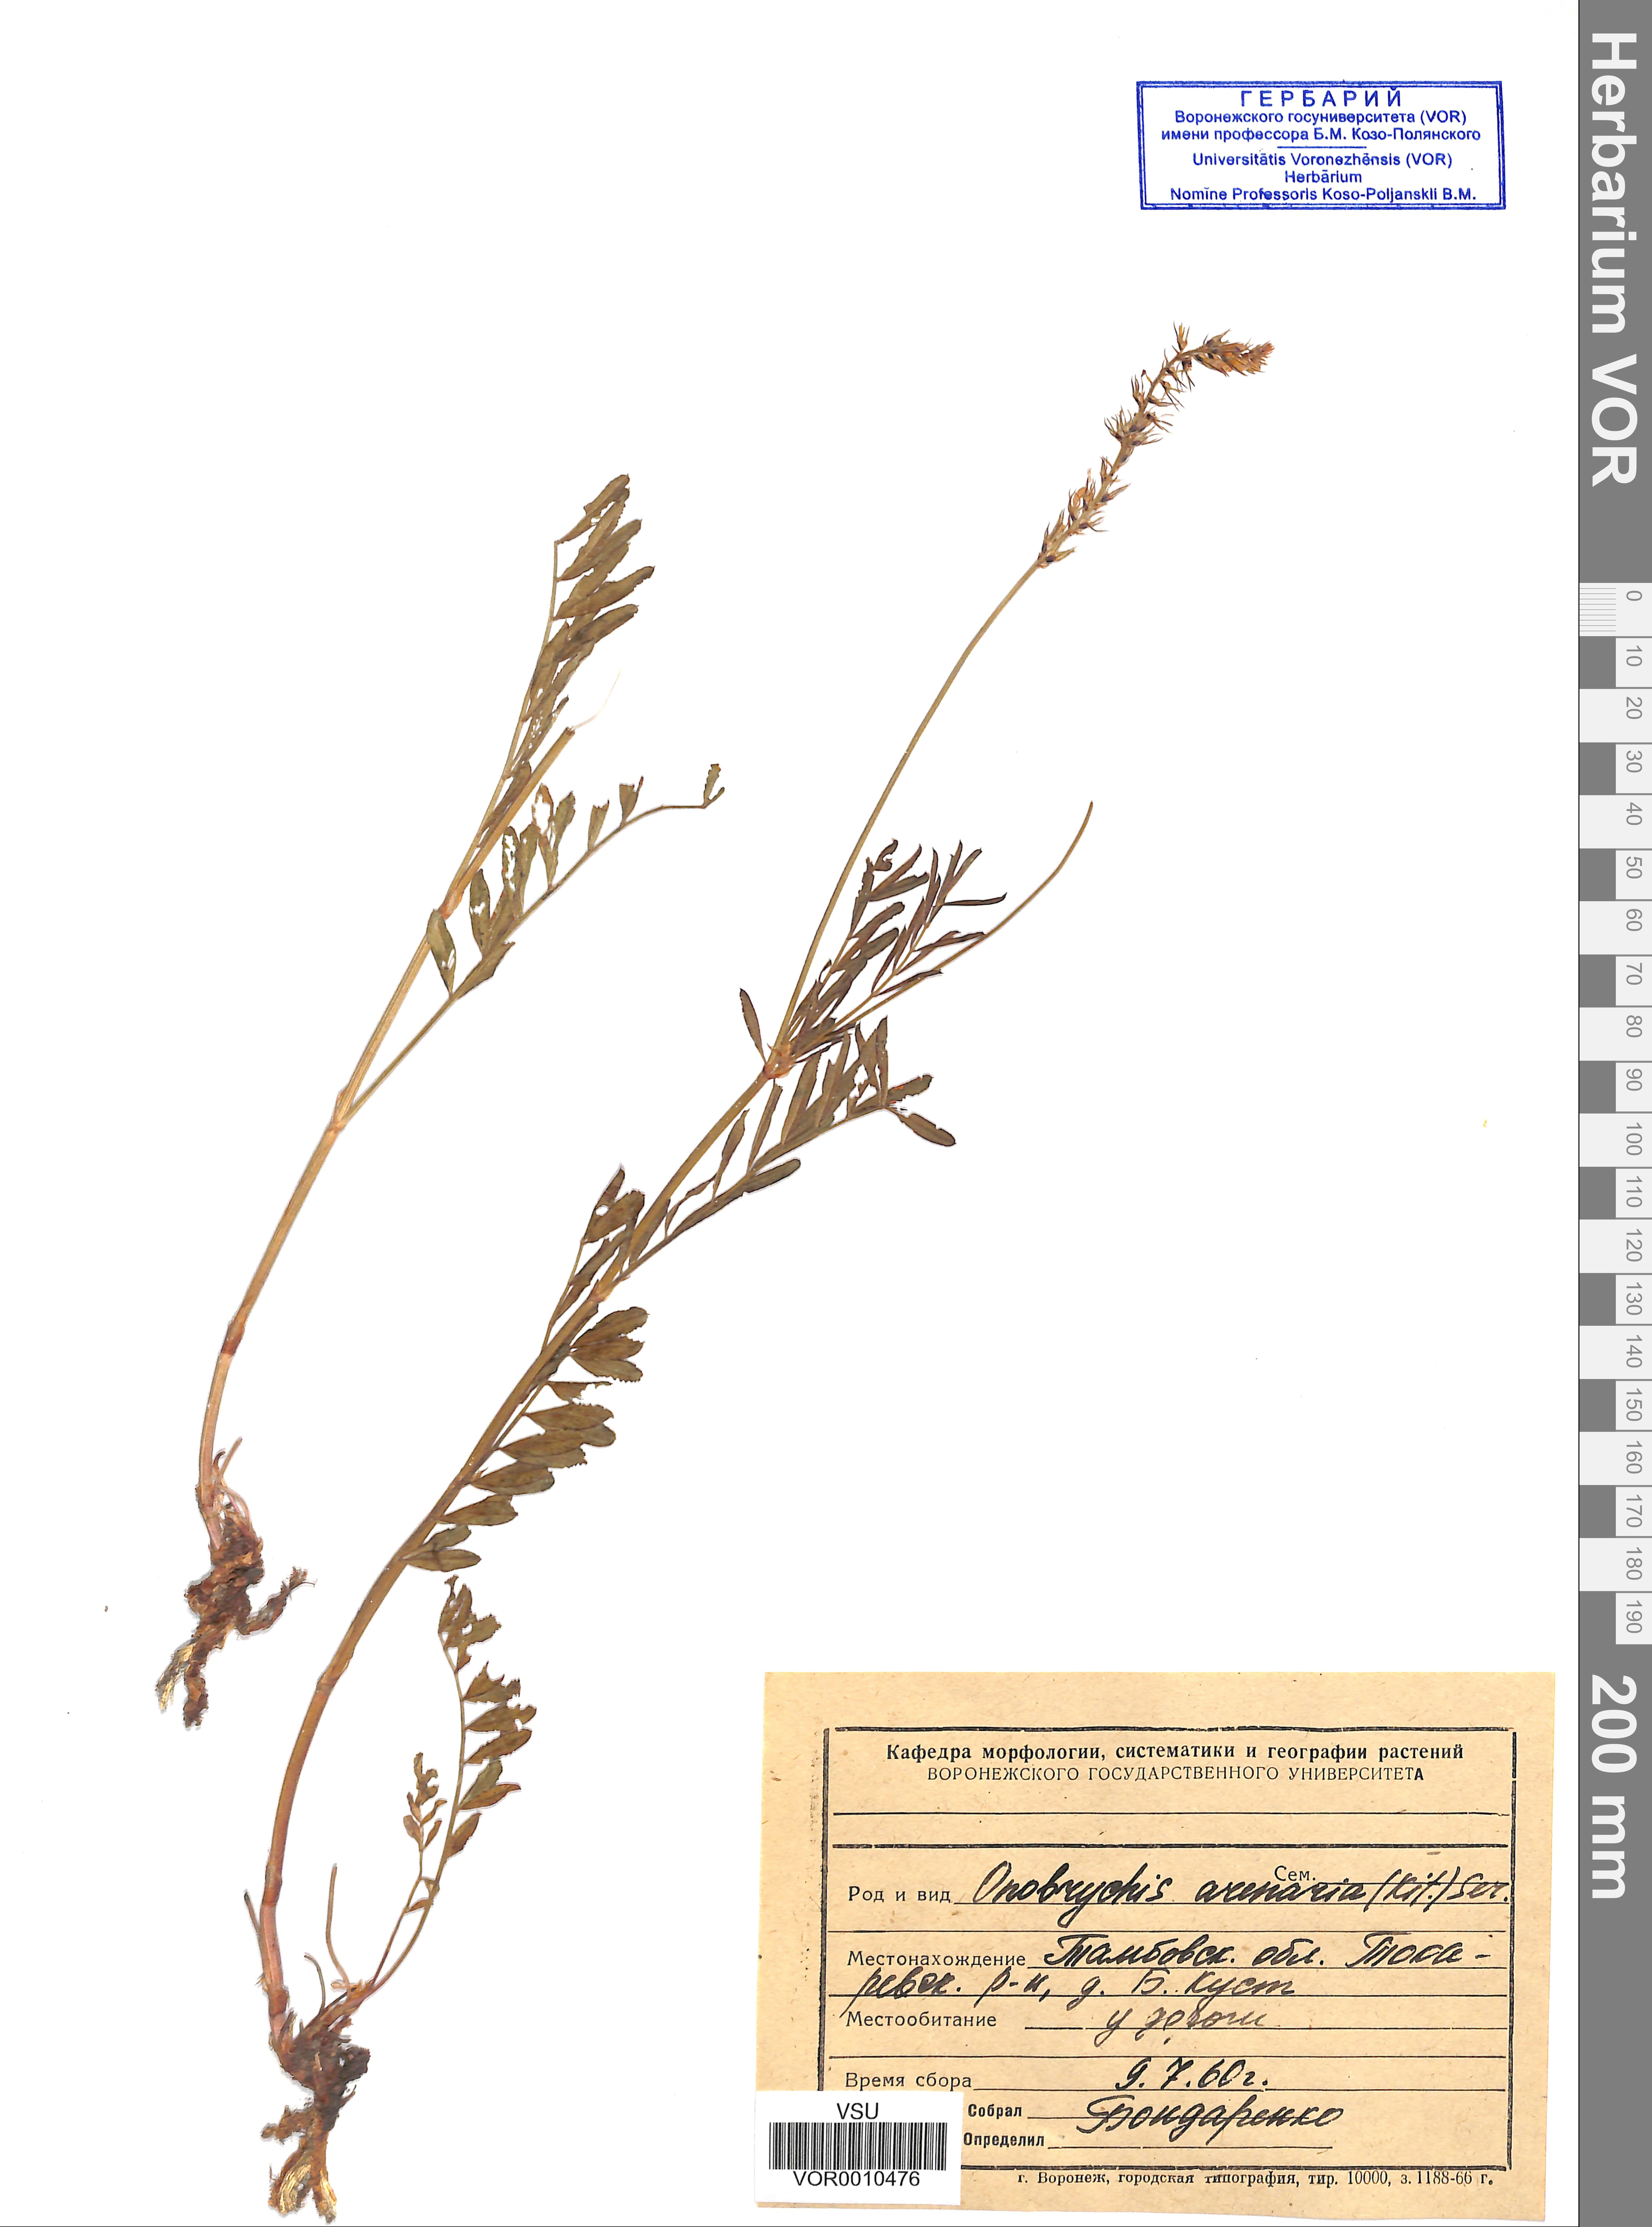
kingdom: Plantae
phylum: Tracheophyta
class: Magnoliopsida
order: Fabales
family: Fabaceae
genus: Onobrychis
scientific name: Onobrychis arenaria
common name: Sand esparcet
